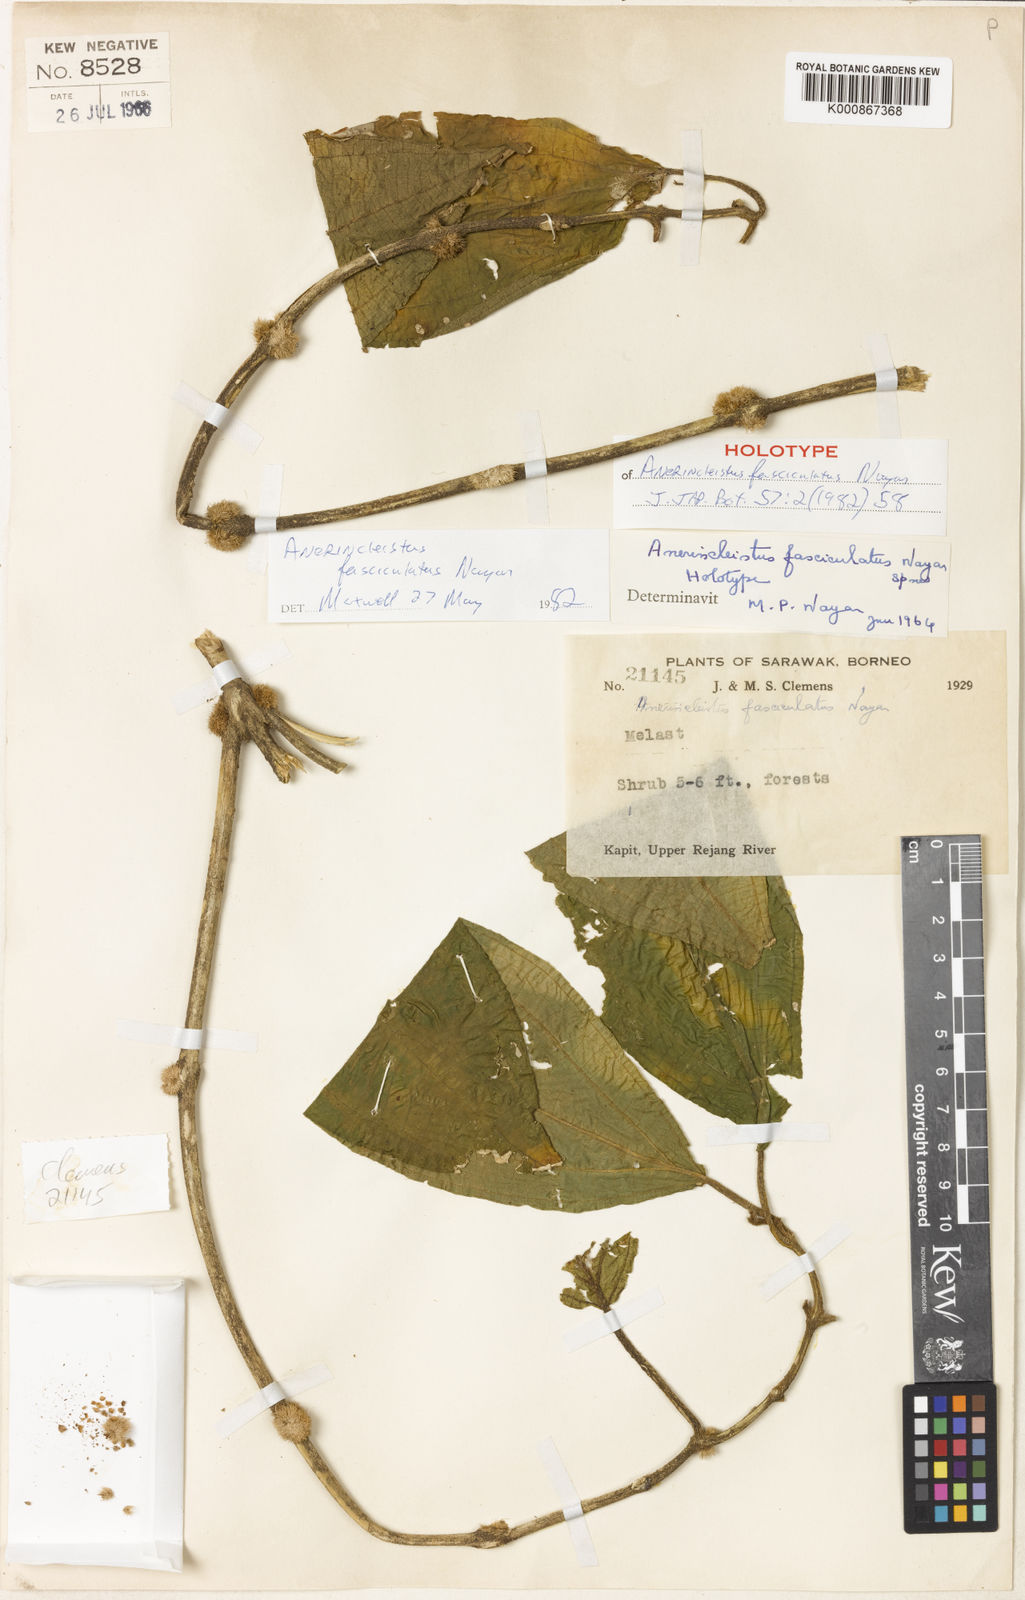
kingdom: Plantae
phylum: Tracheophyta
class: Magnoliopsida
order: Myrtales
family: Melastomataceae
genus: Anerincleistus
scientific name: Anerincleistus fasciculatus
